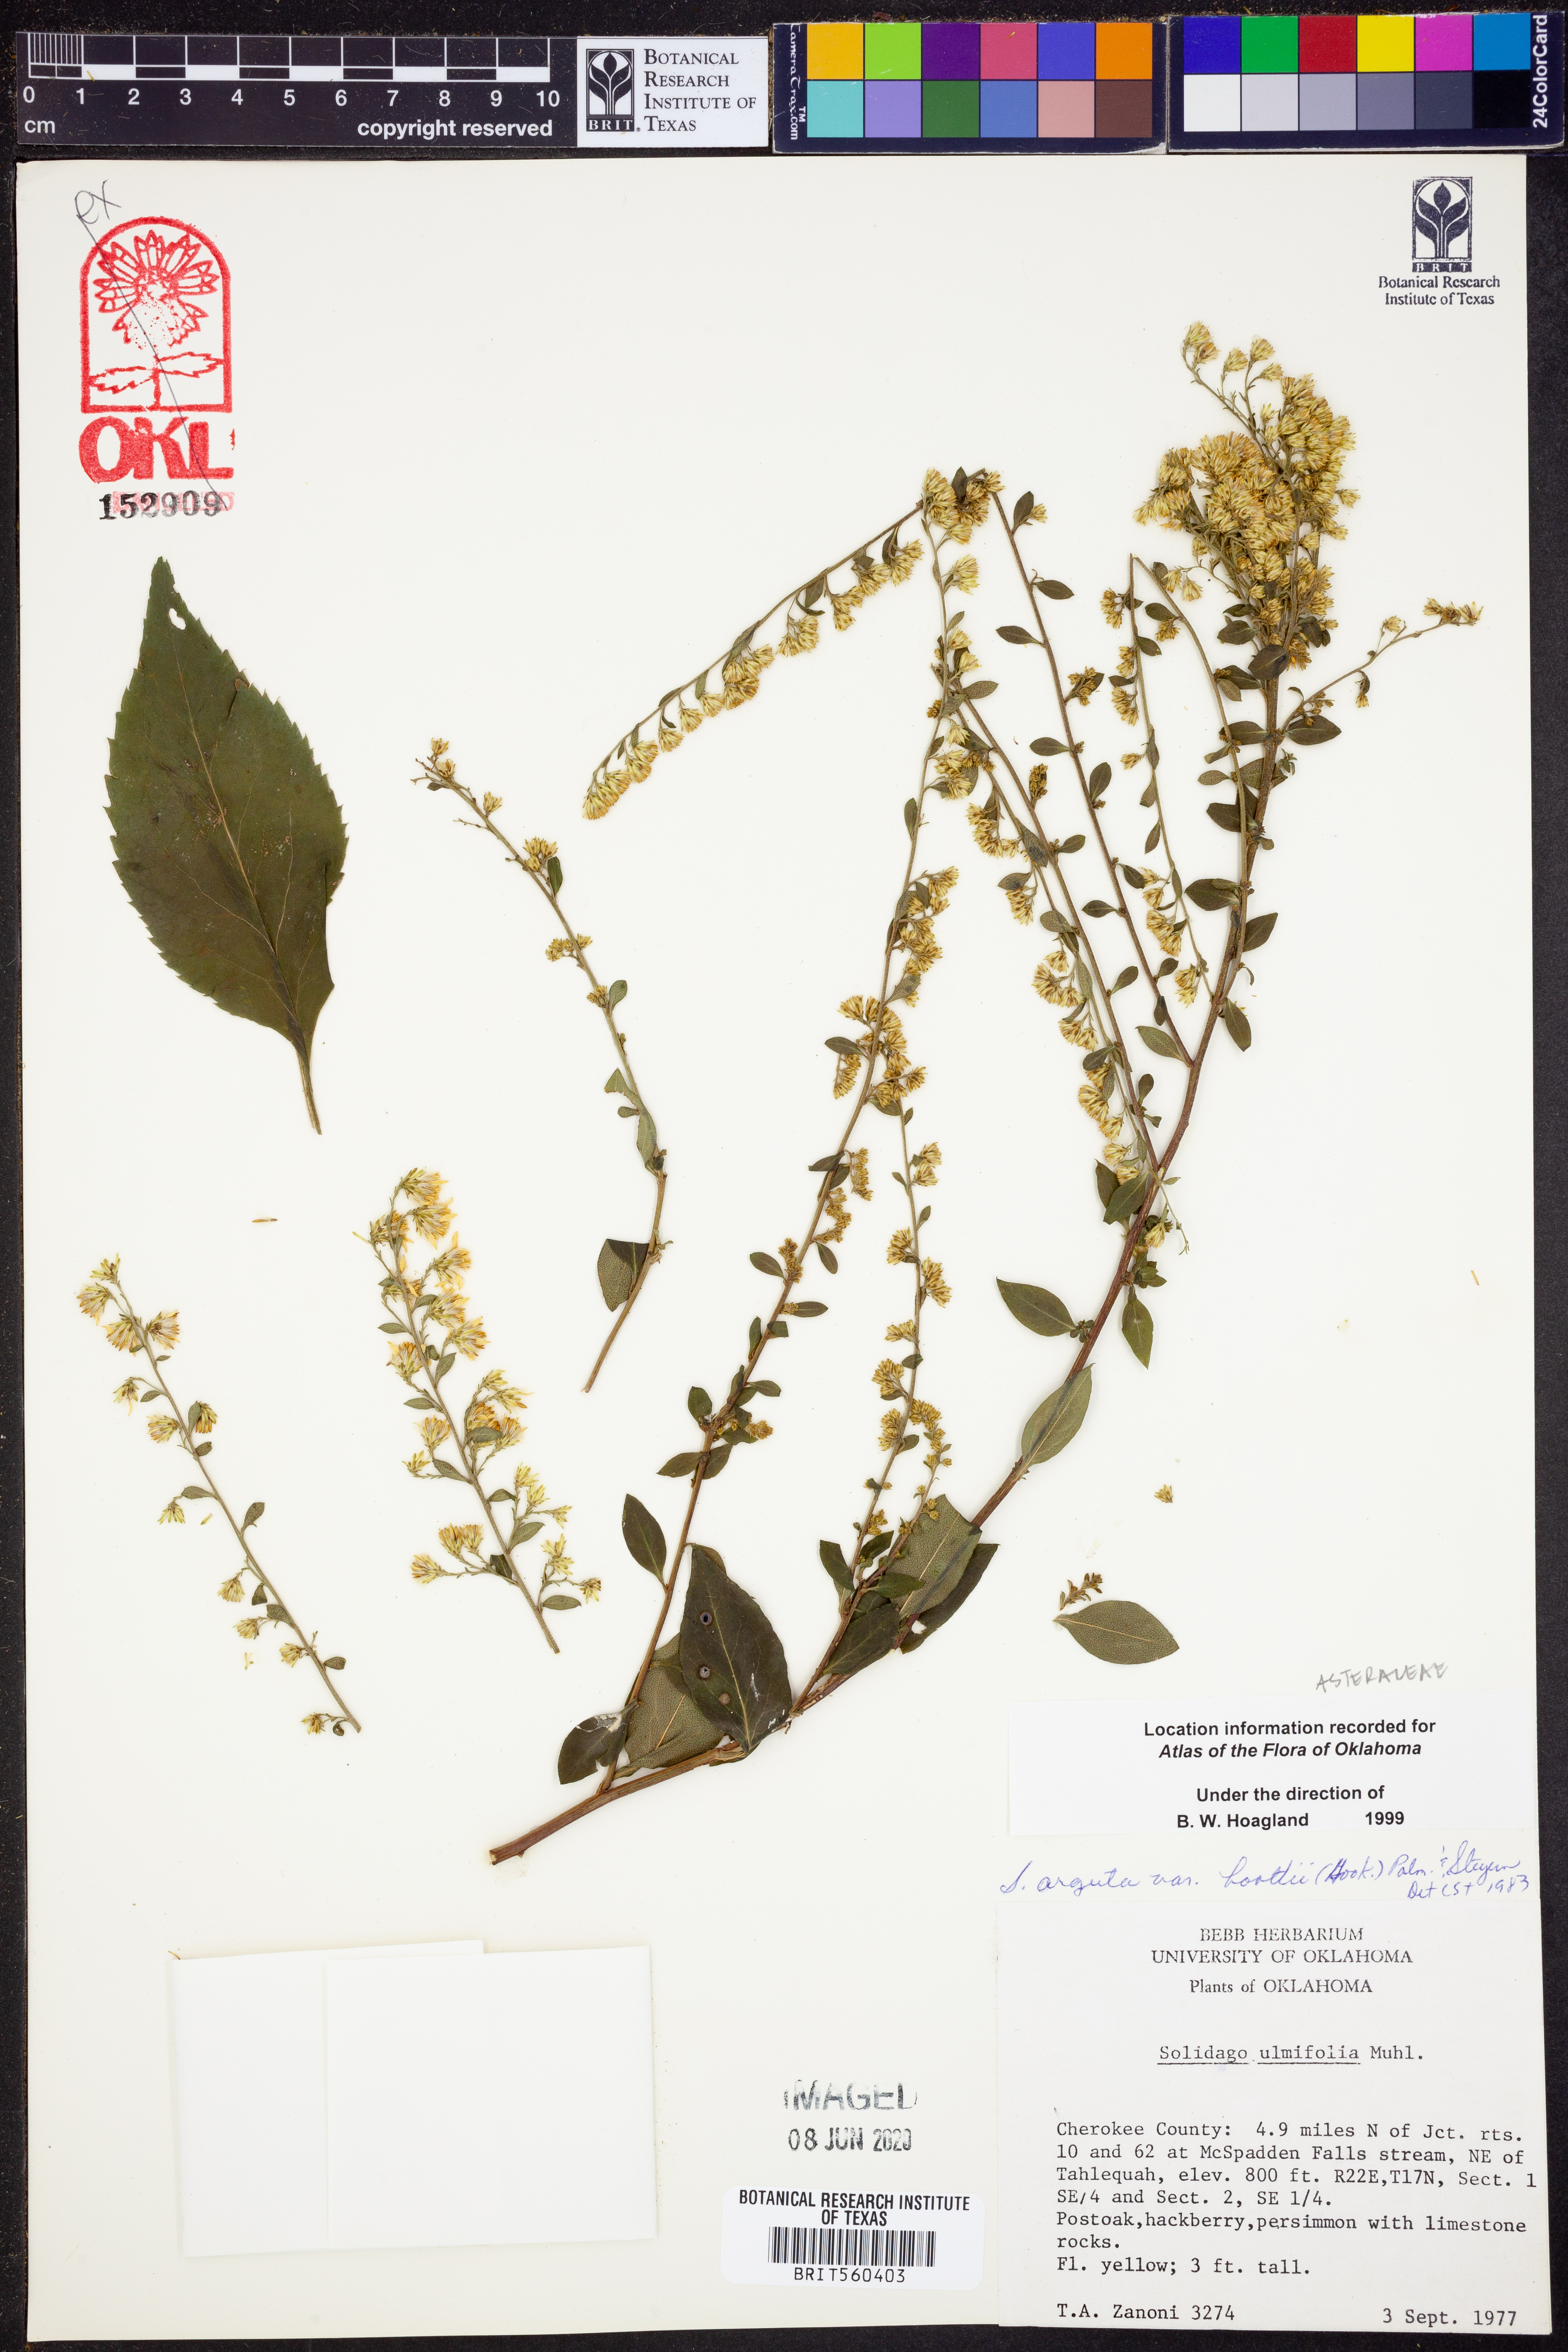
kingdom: Plantae
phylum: Tracheophyta
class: Magnoliopsida
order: Asterales
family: Asteraceae
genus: Solidago
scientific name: Solidago boottii
